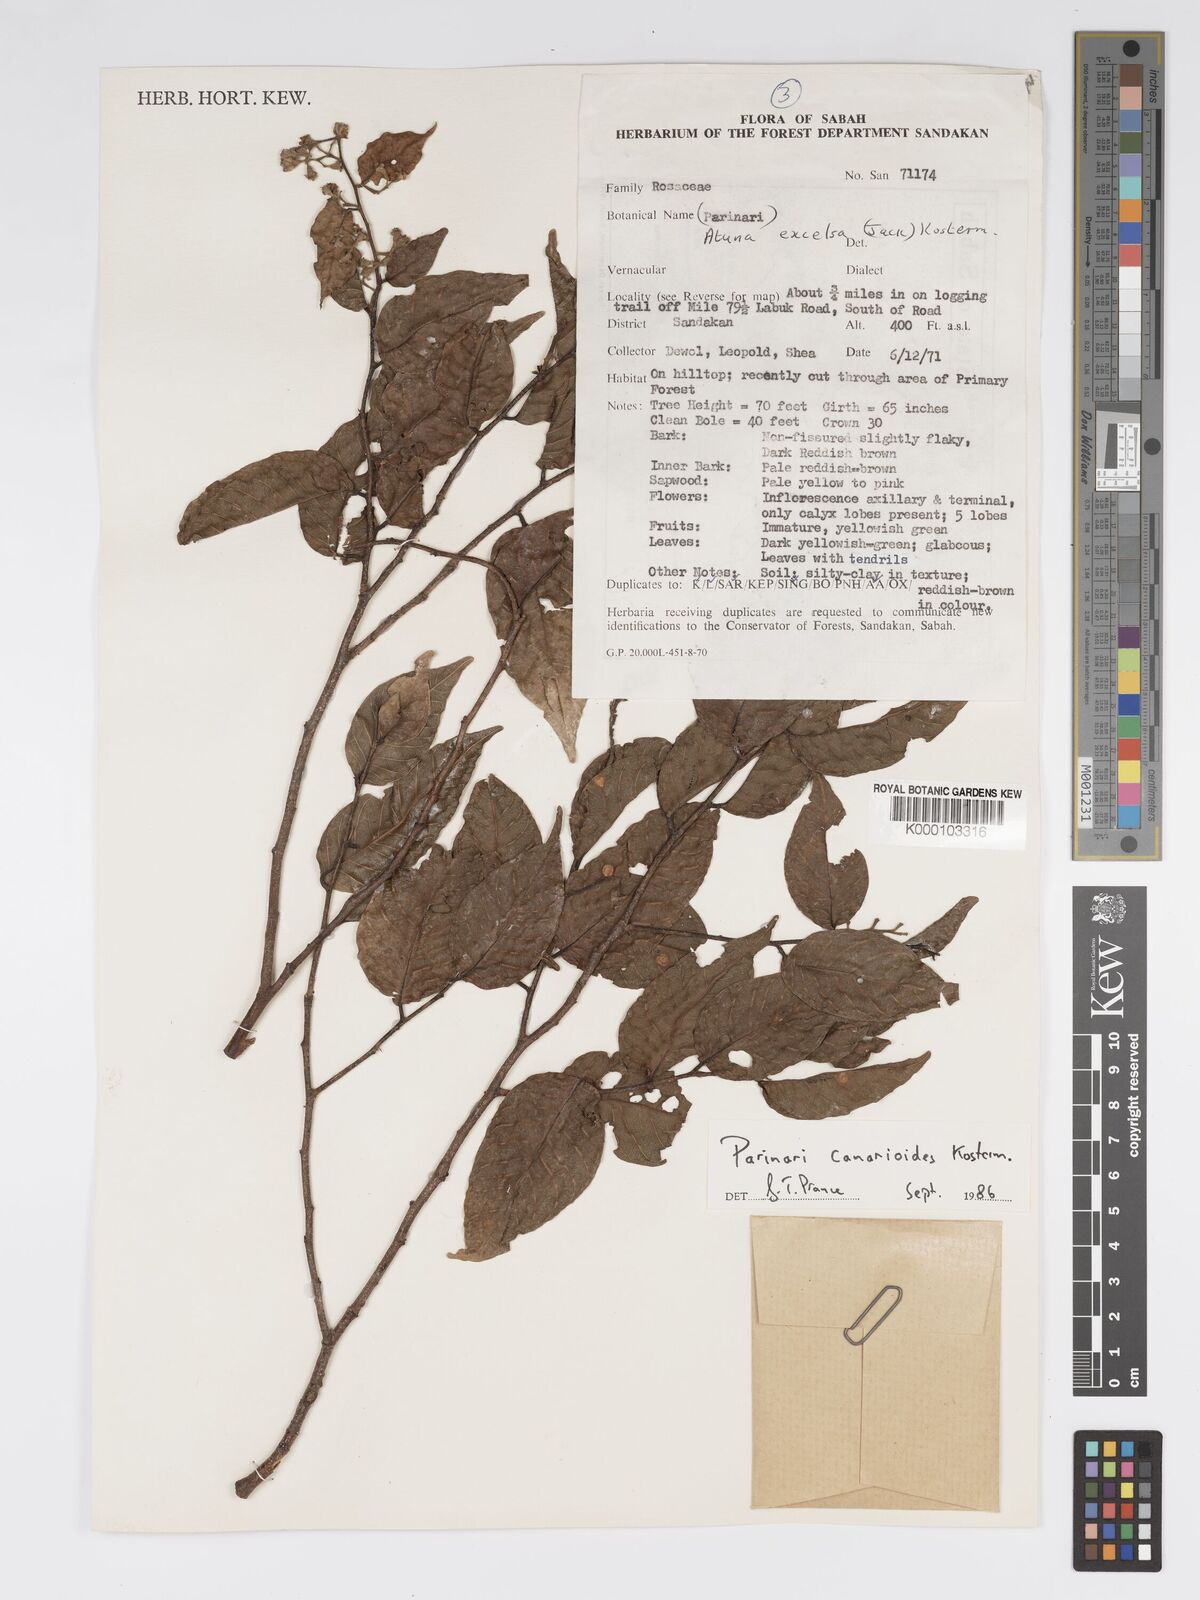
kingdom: Plantae
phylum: Tracheophyta
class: Magnoliopsida
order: Malpighiales
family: Chrysobalanaceae
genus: Parinari
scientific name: Parinari canarioides
